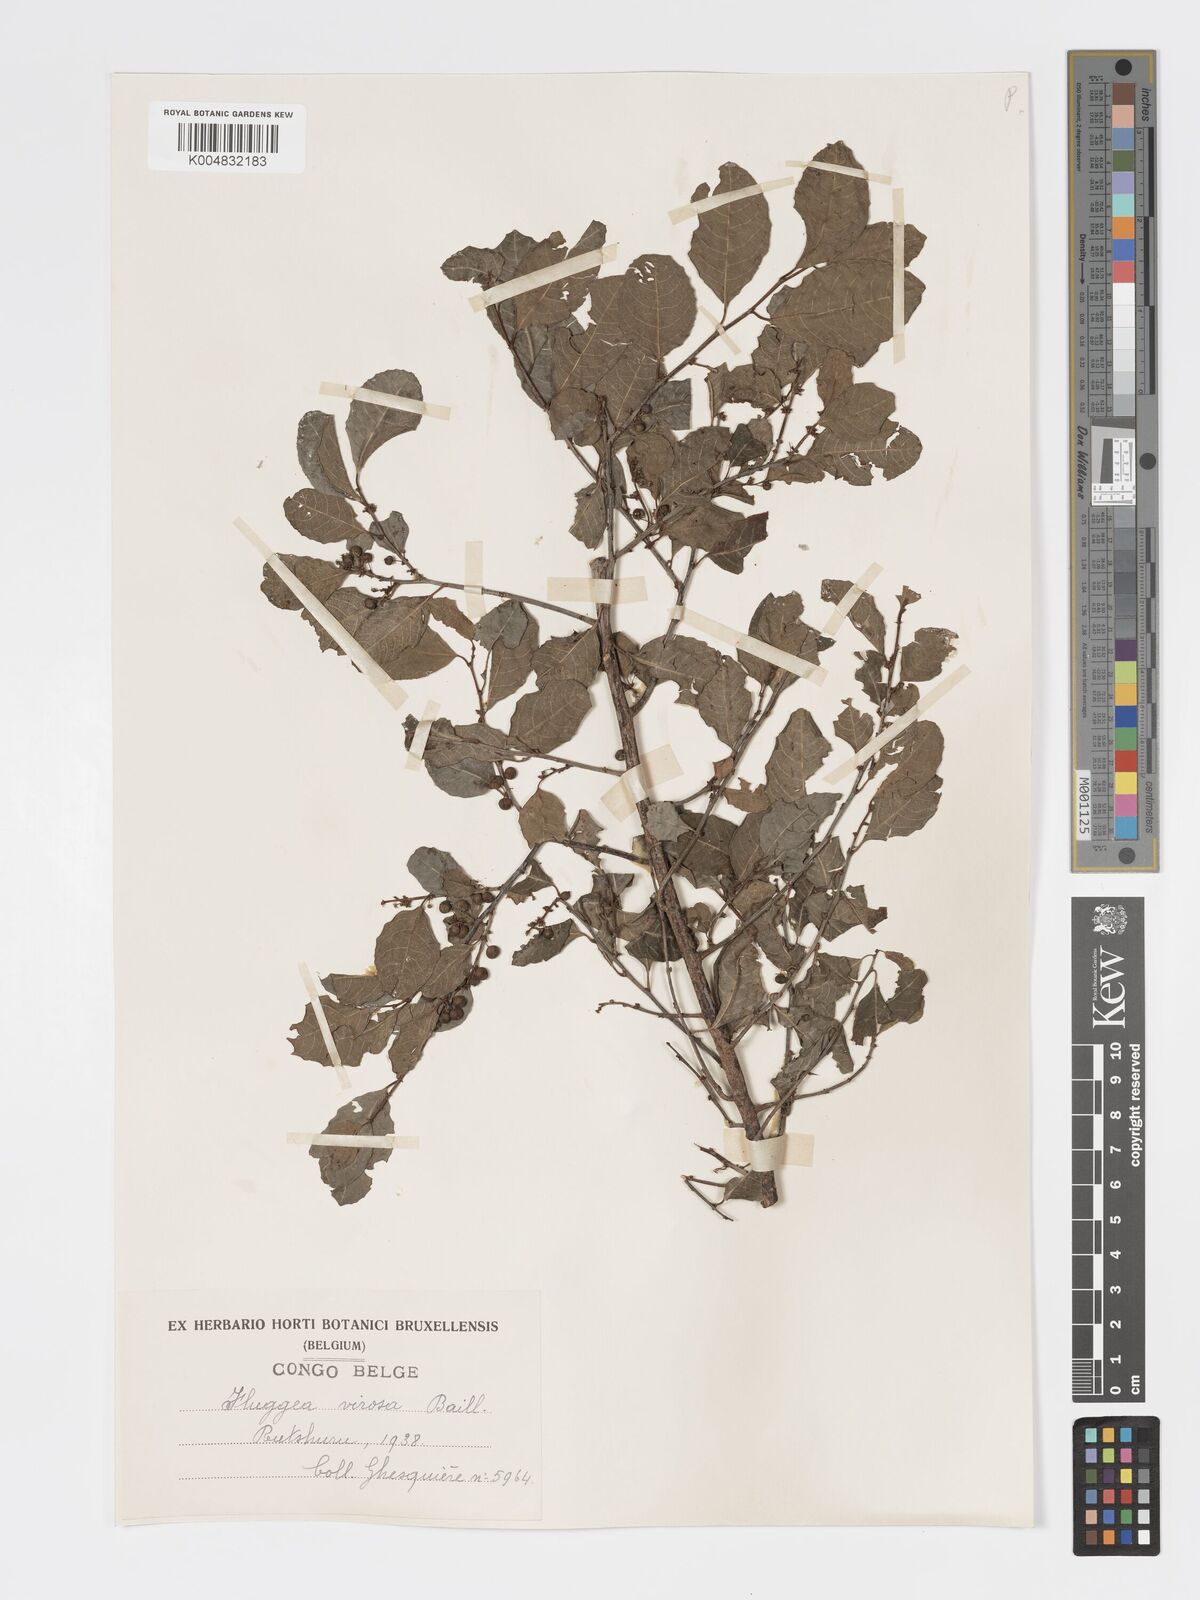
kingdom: Plantae
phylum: Tracheophyta
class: Magnoliopsida
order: Malpighiales
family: Phyllanthaceae
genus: Flueggea
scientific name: Flueggea virosa
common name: Common bushweed
